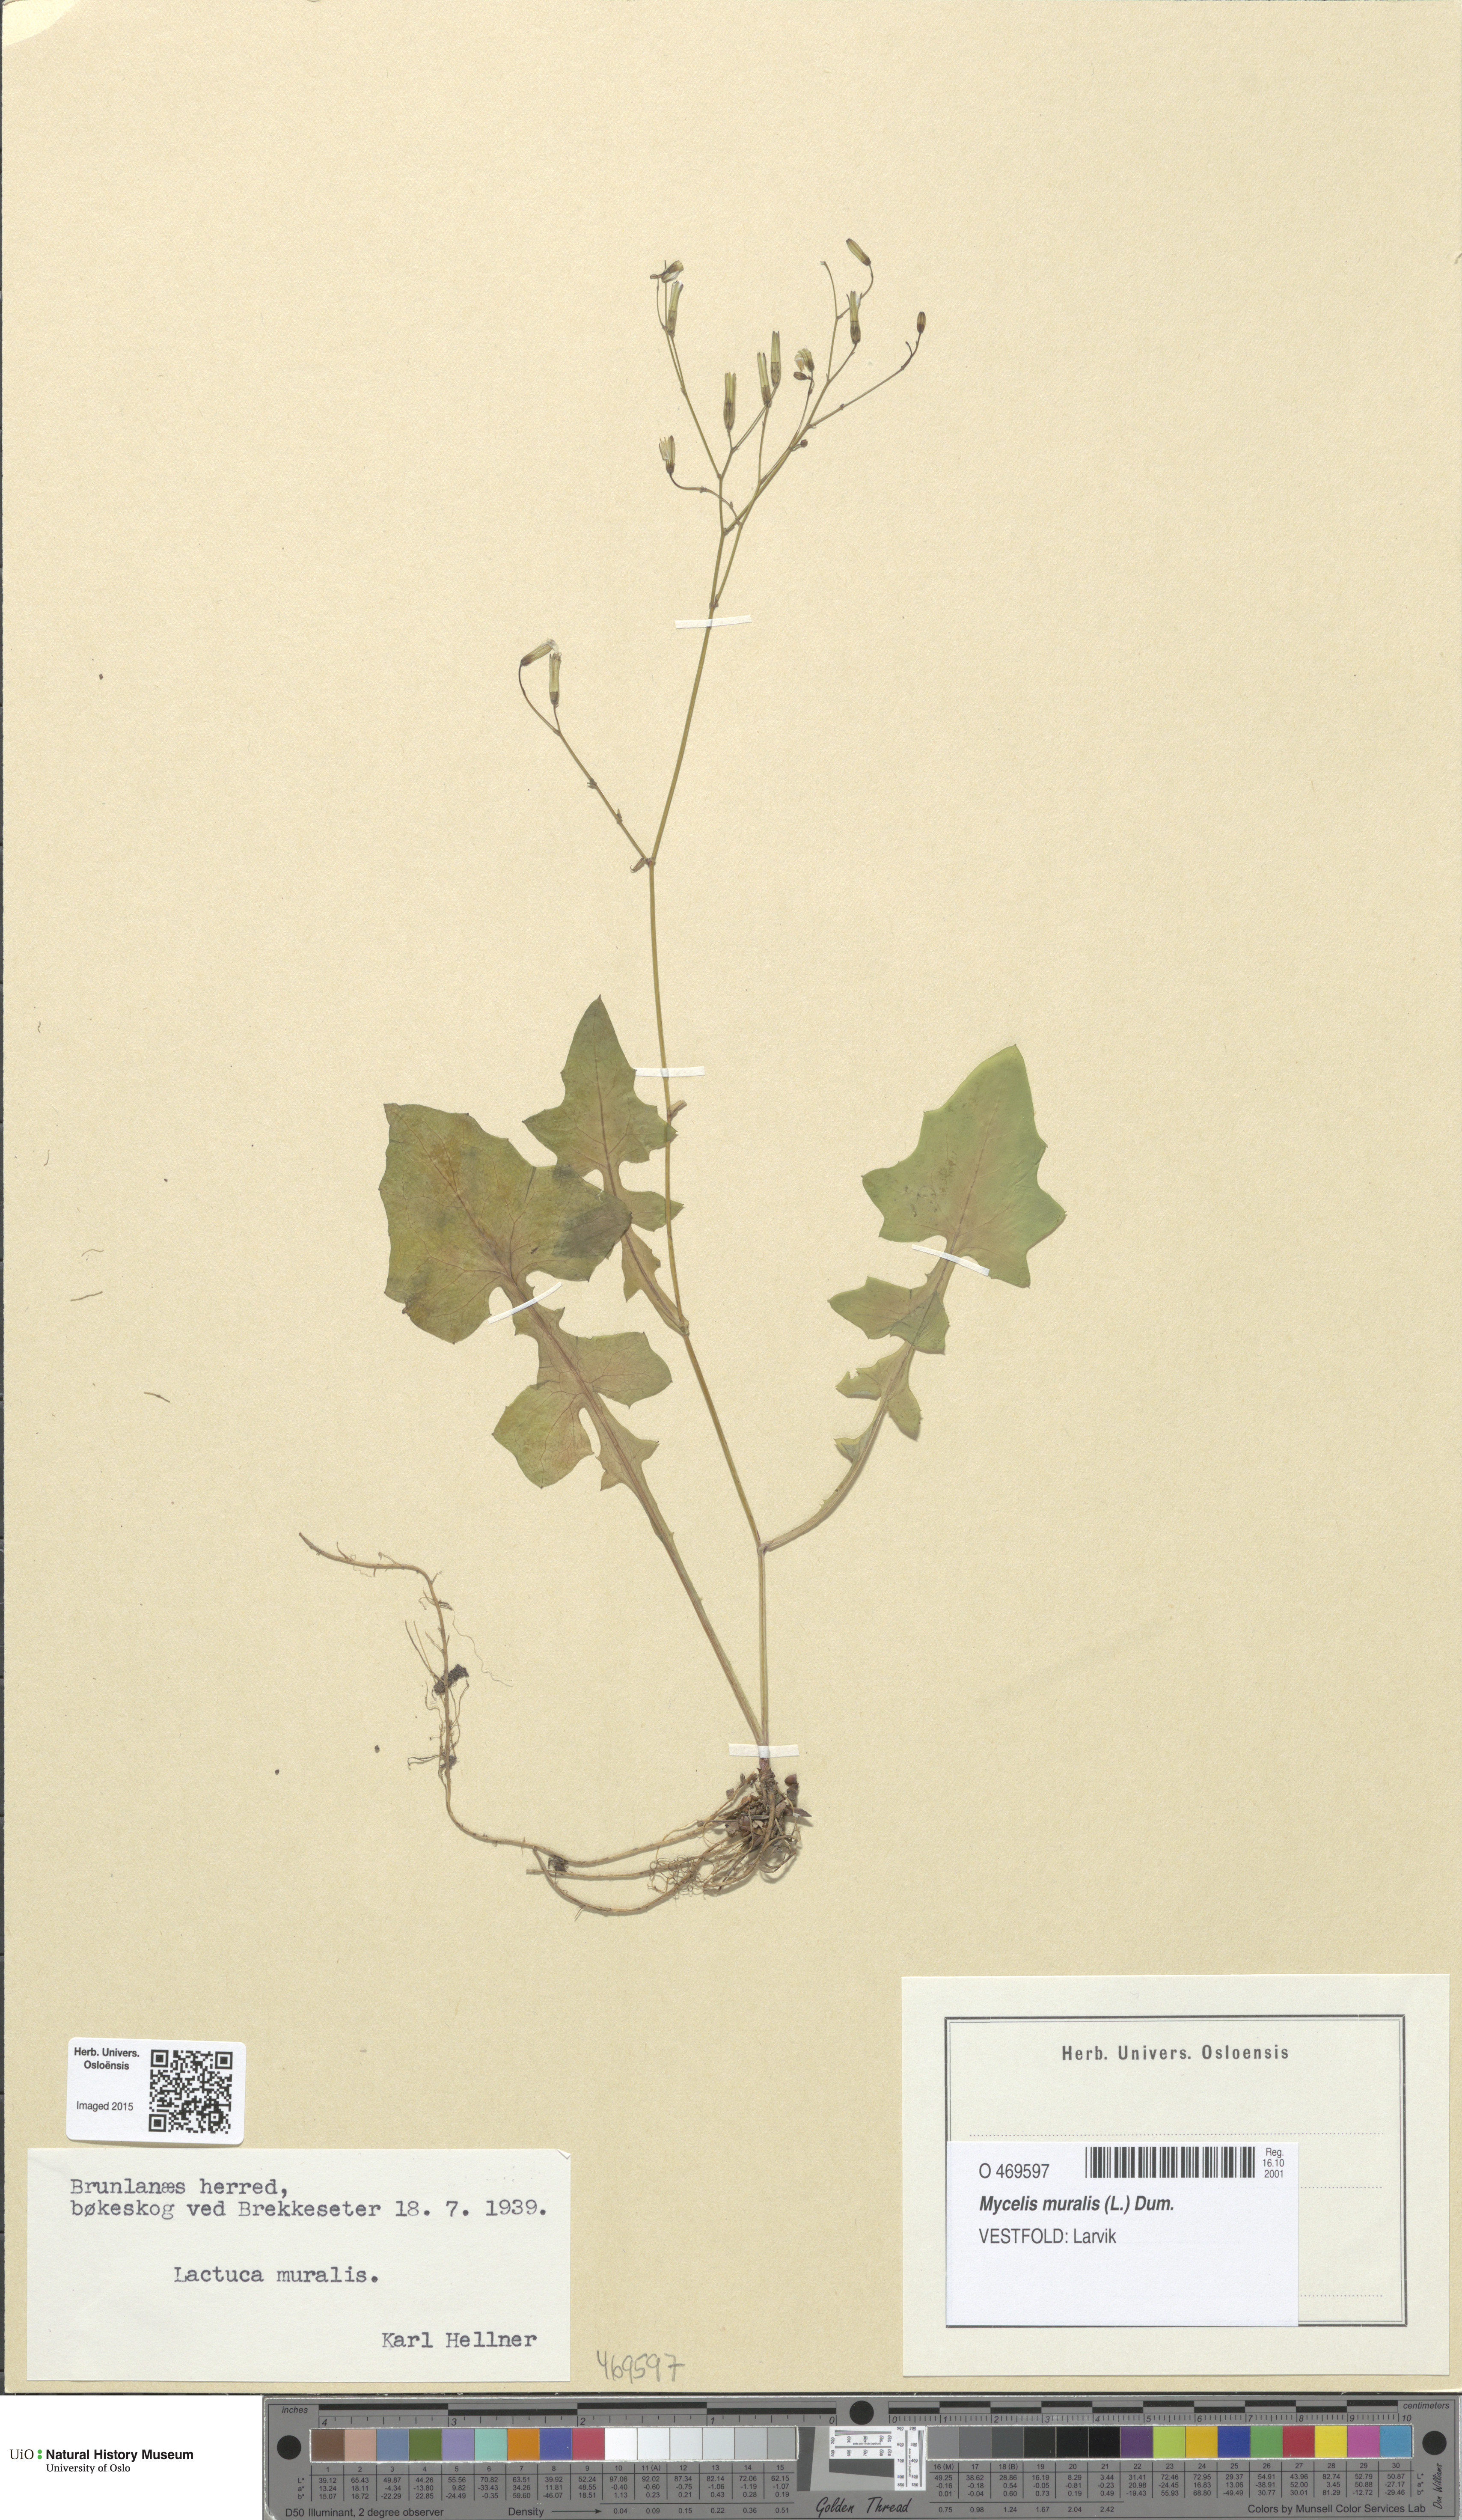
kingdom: Plantae
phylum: Tracheophyta
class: Magnoliopsida
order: Asterales
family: Asteraceae
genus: Mycelis
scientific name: Mycelis muralis
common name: Wall lettuce
